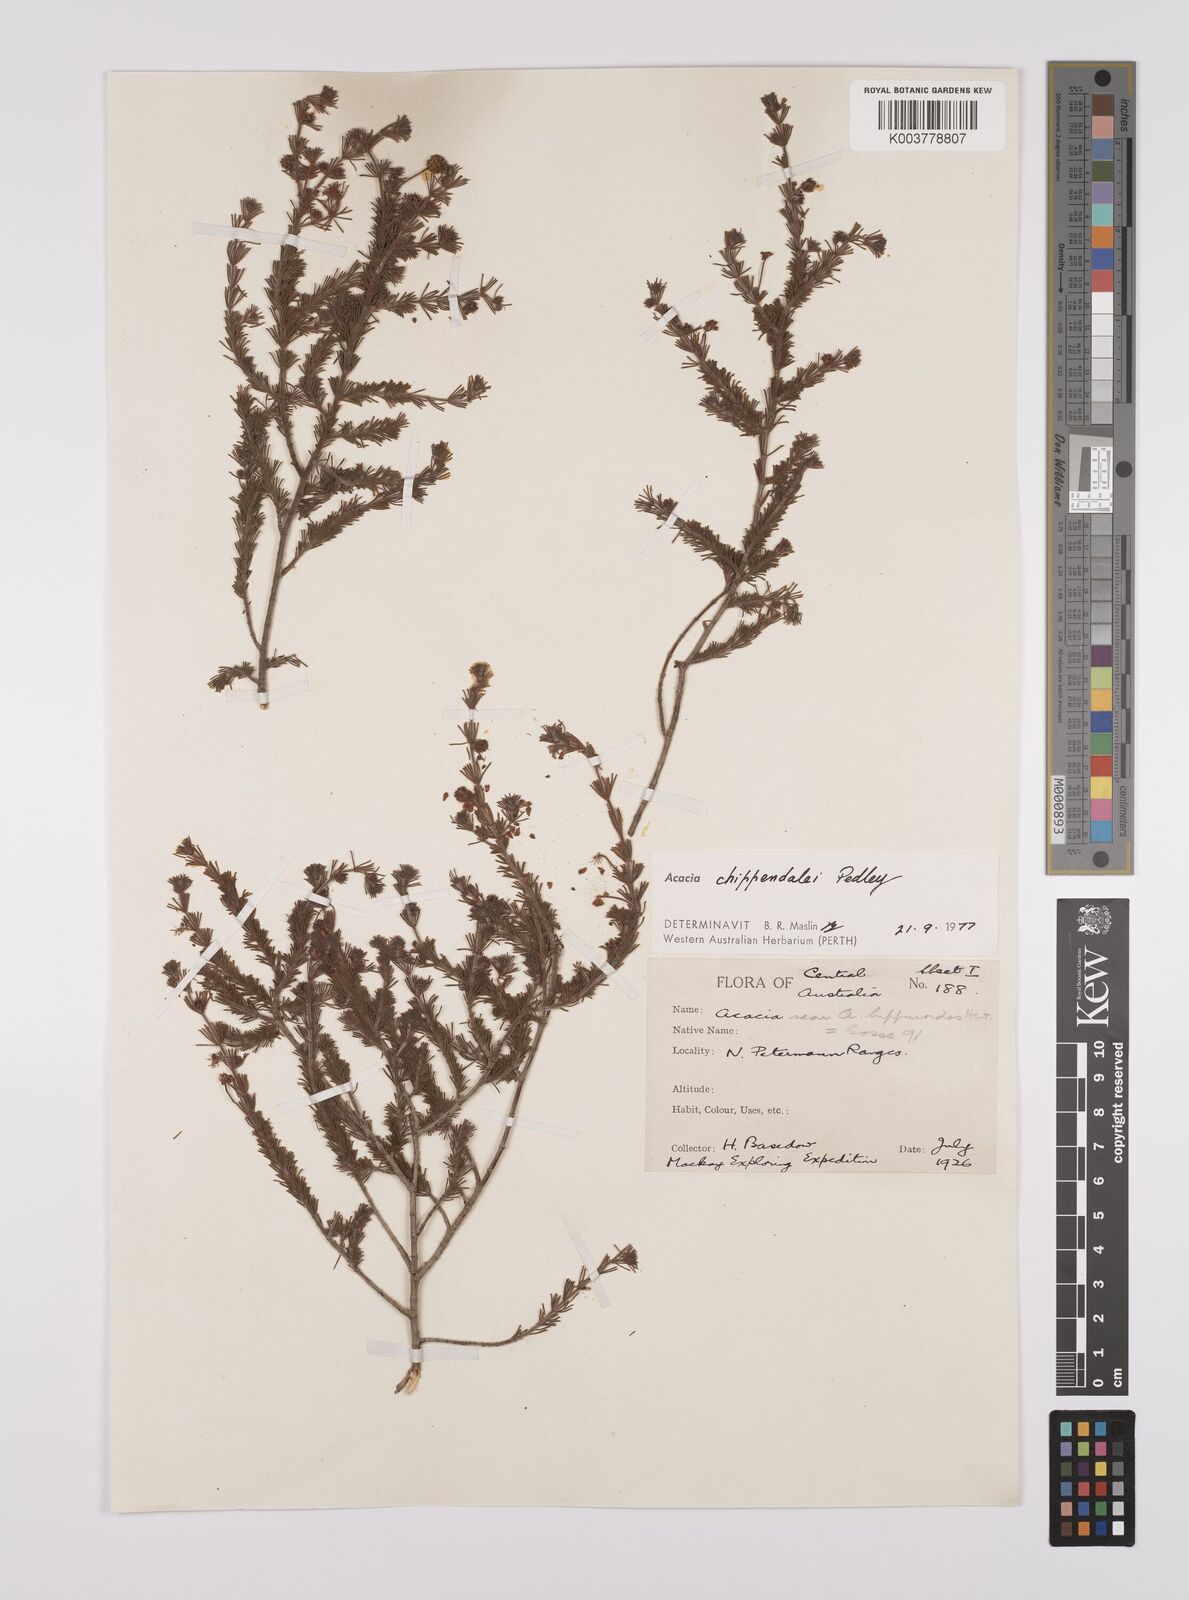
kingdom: Plantae
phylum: Tracheophyta
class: Magnoliopsida
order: Fabales
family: Fabaceae
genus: Acacia
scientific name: Acacia chippendalei
